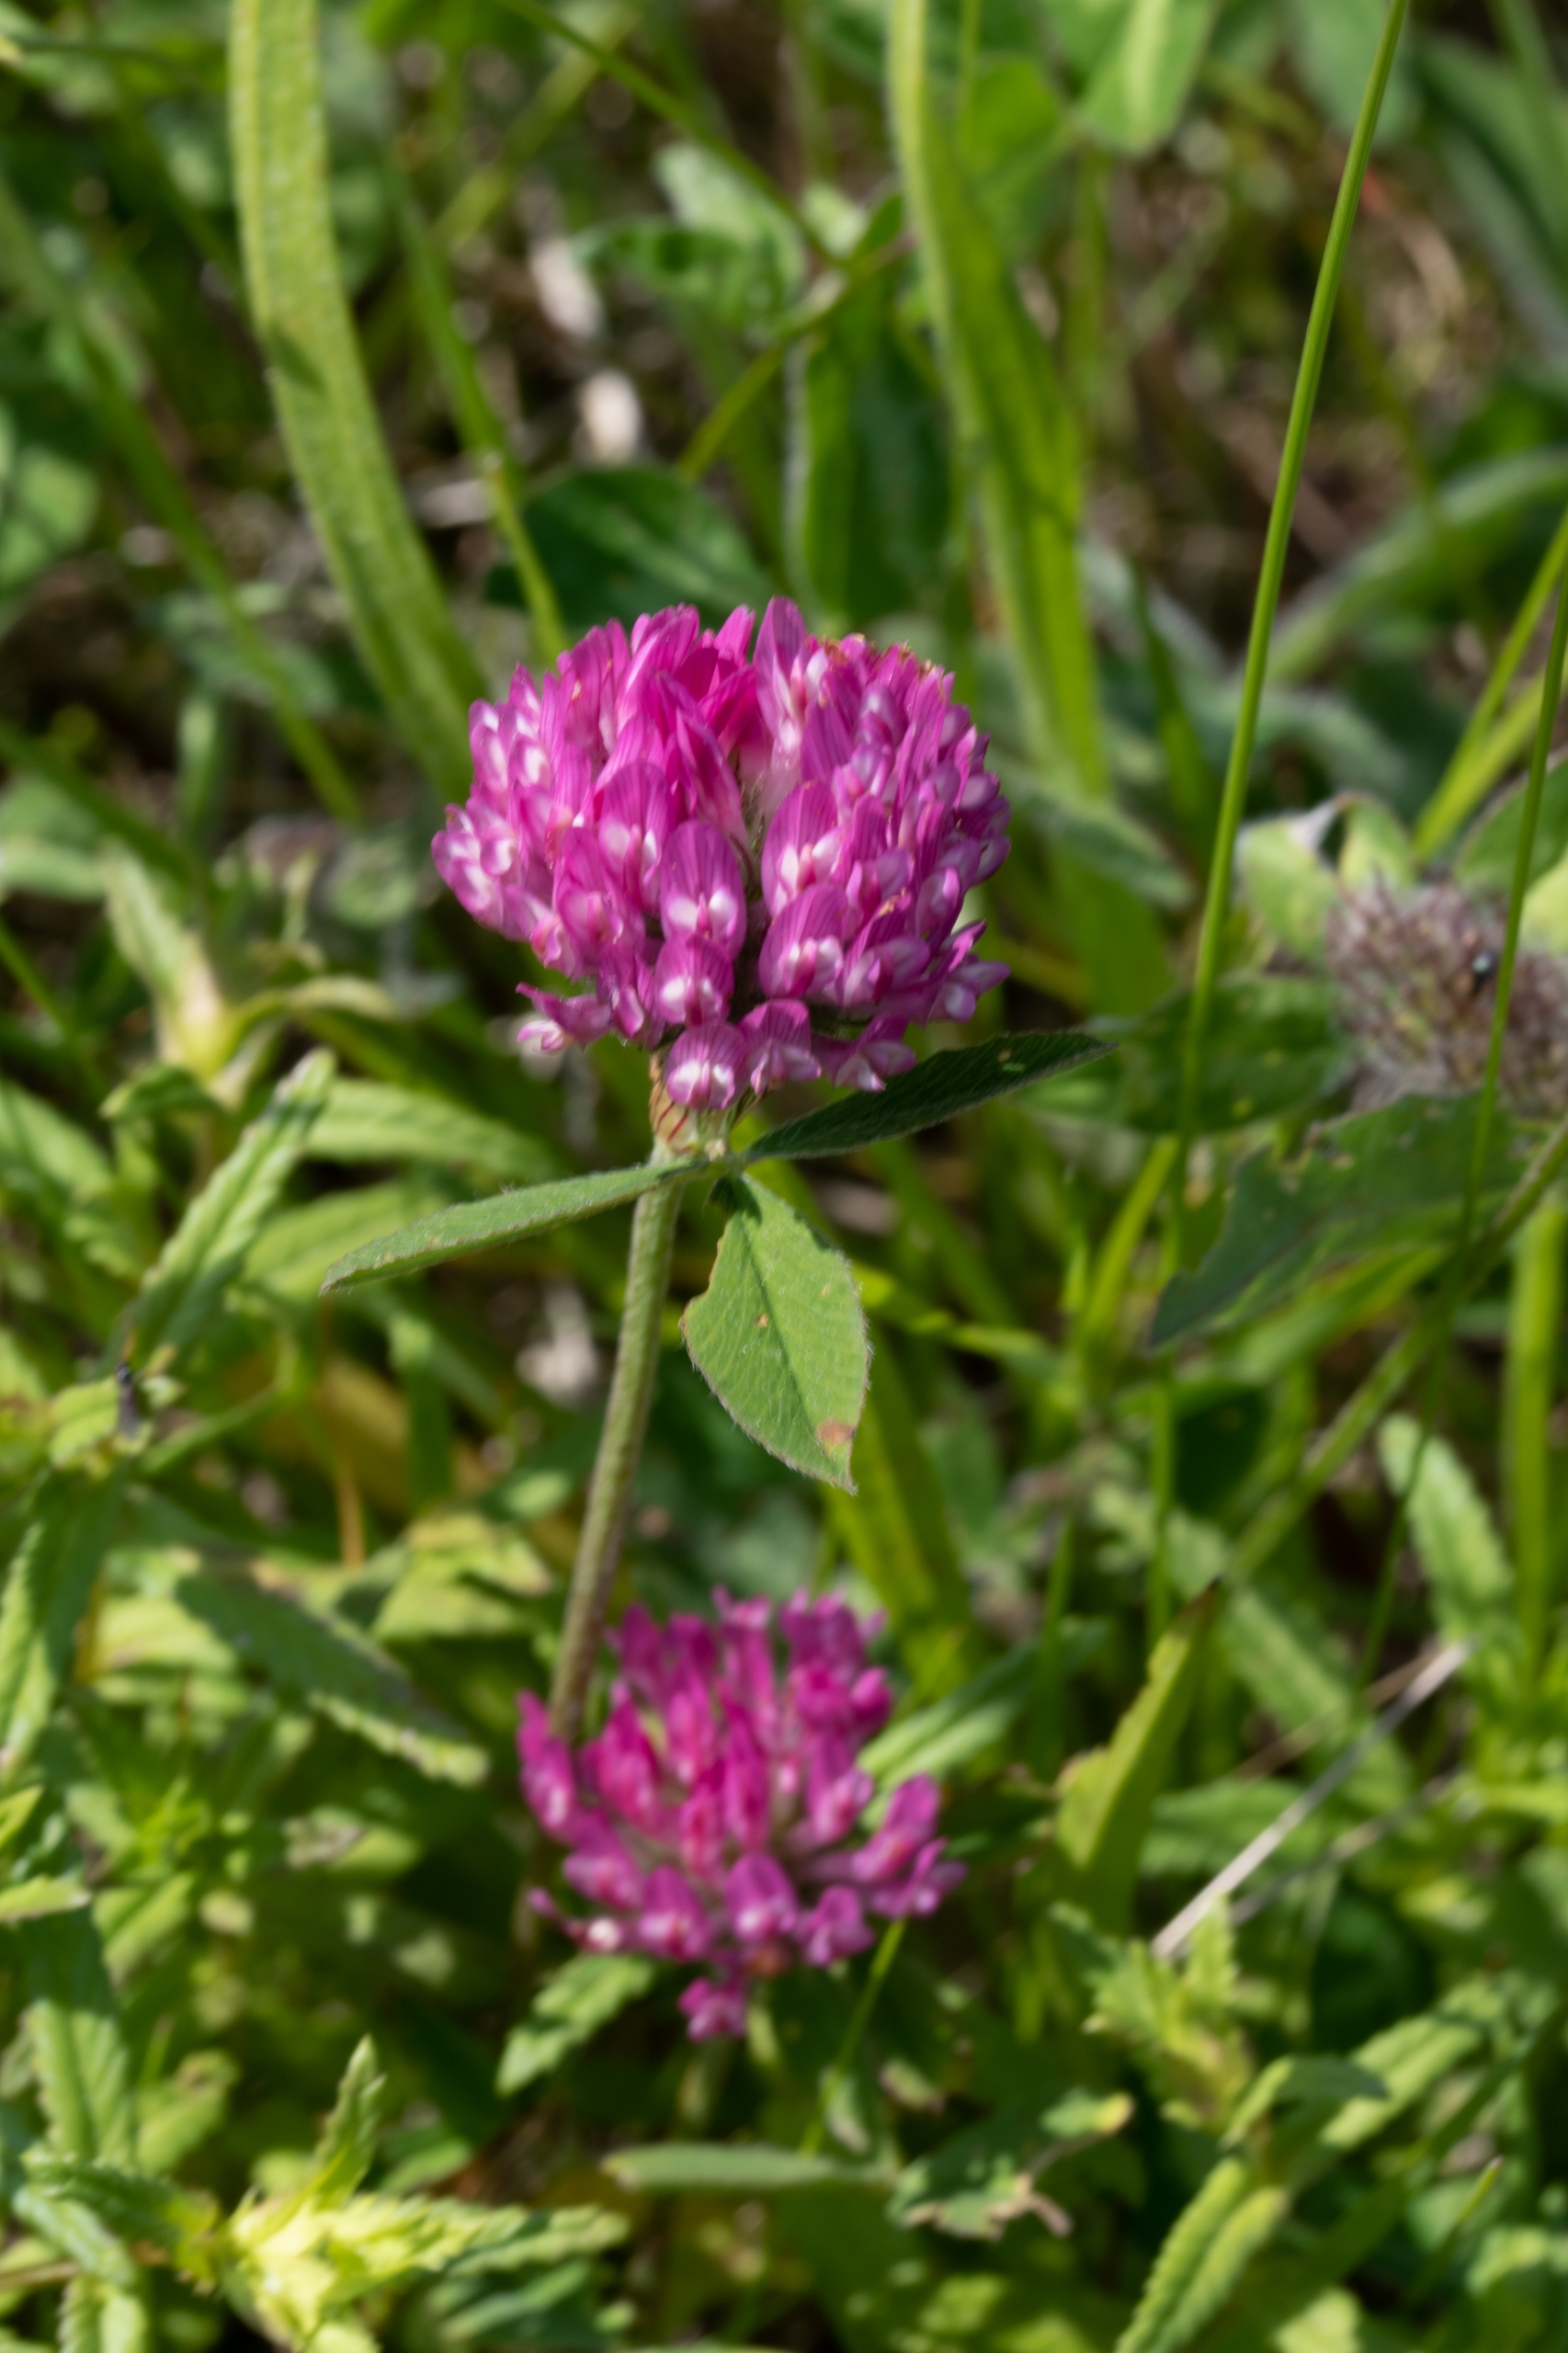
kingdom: Plantae
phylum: Tracheophyta
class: Magnoliopsida
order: Fabales
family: Fabaceae
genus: Trifolium
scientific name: Trifolium pratense
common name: Rød-kløver
